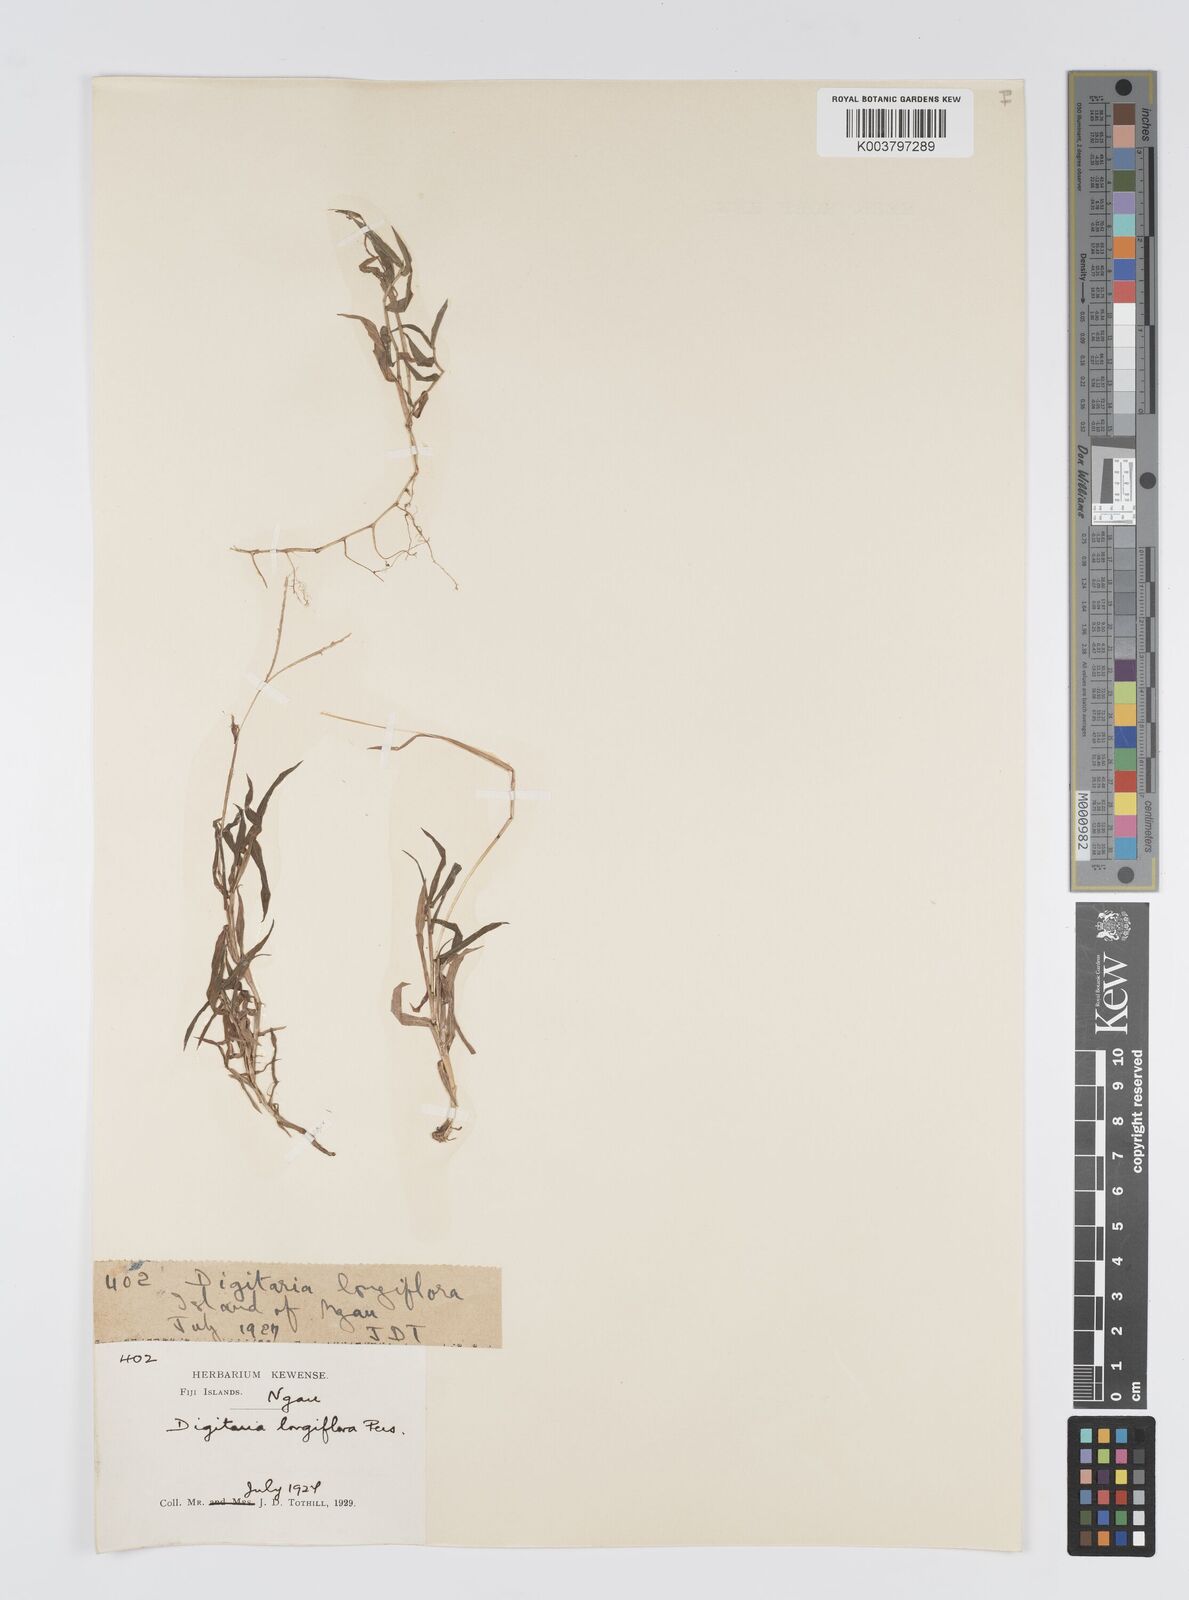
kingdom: Plantae
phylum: Tracheophyta
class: Liliopsida
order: Poales
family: Poaceae
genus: Digitaria
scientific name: Digitaria fuscescens
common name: Yellow crabgrass
